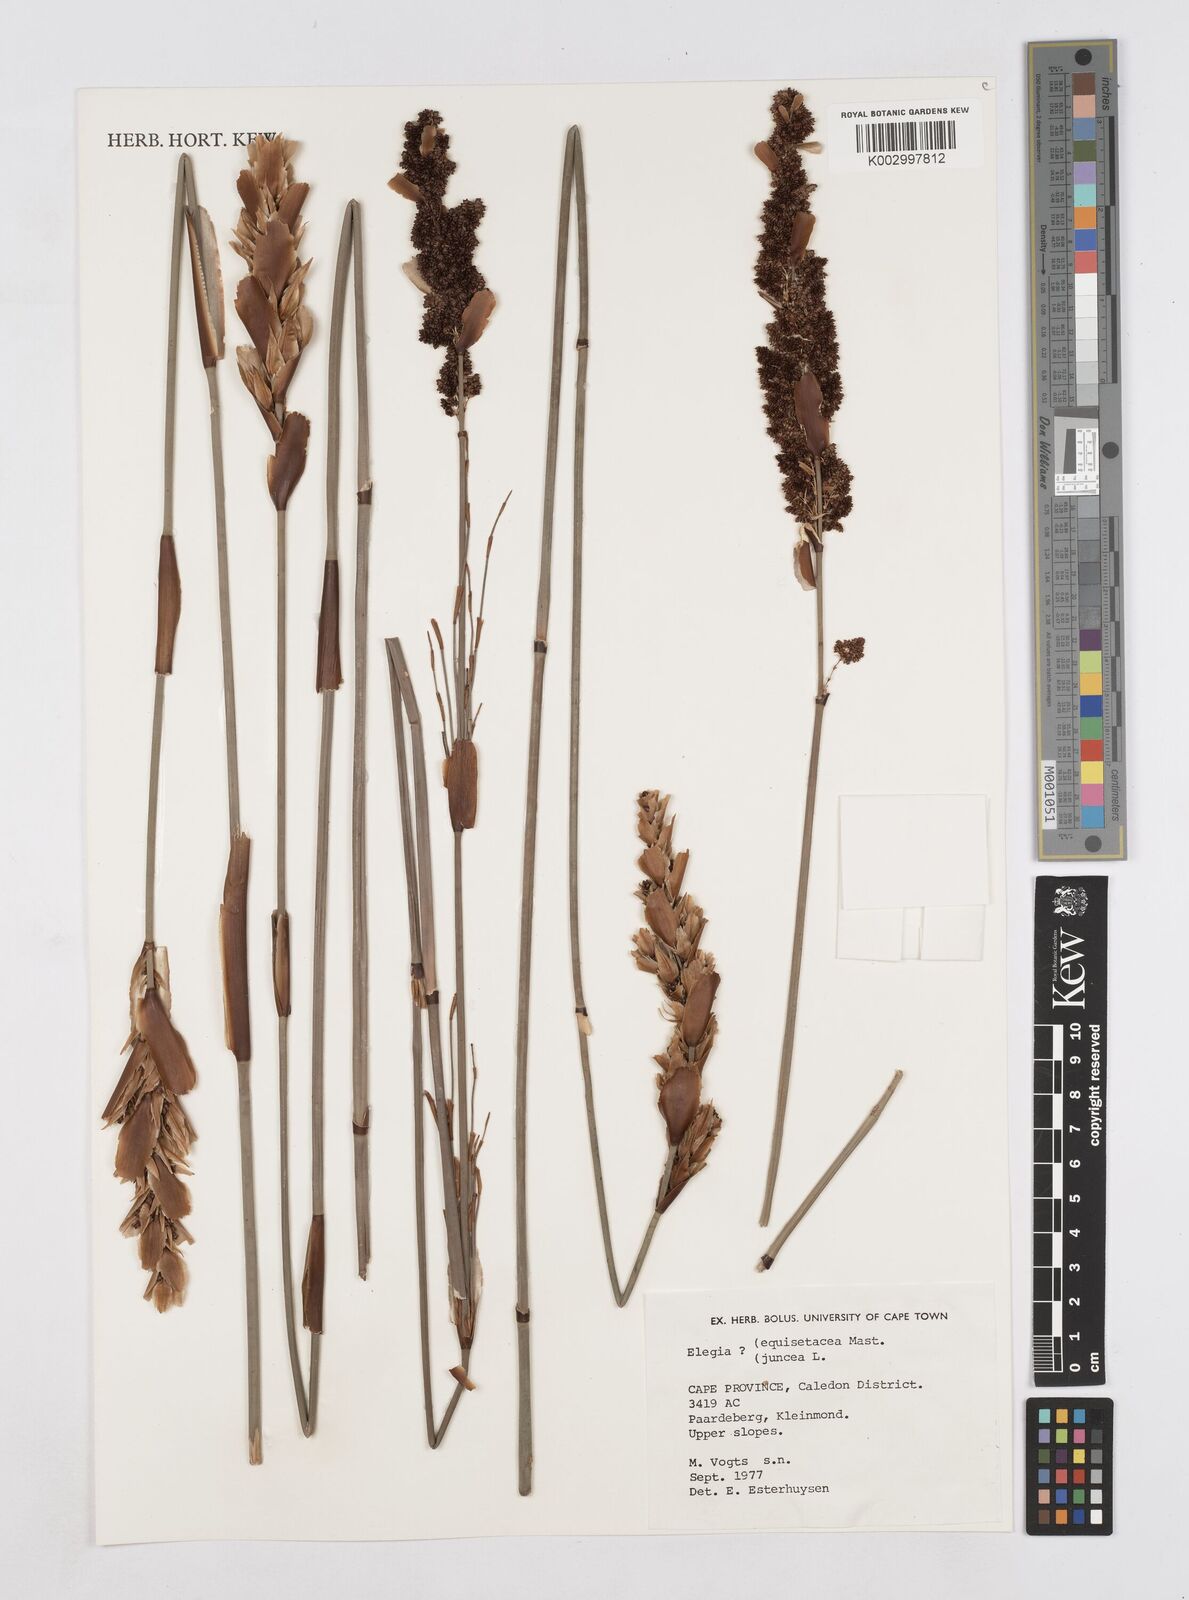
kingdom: Plantae
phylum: Tracheophyta
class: Liliopsida
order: Poales
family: Restionaceae
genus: Elegia
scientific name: Elegia juncea
